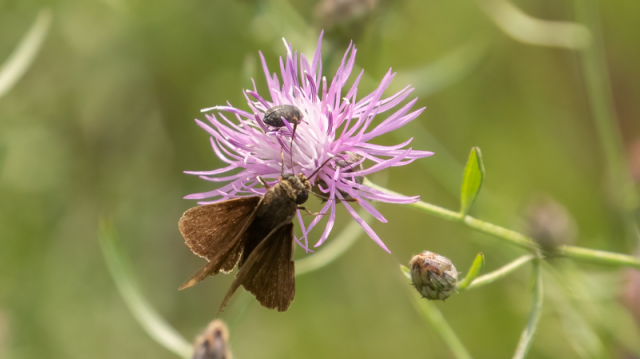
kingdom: Animalia
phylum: Arthropoda
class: Insecta
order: Lepidoptera
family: Hesperiidae
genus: Euphyes
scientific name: Euphyes vestris
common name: Dun Skipper
